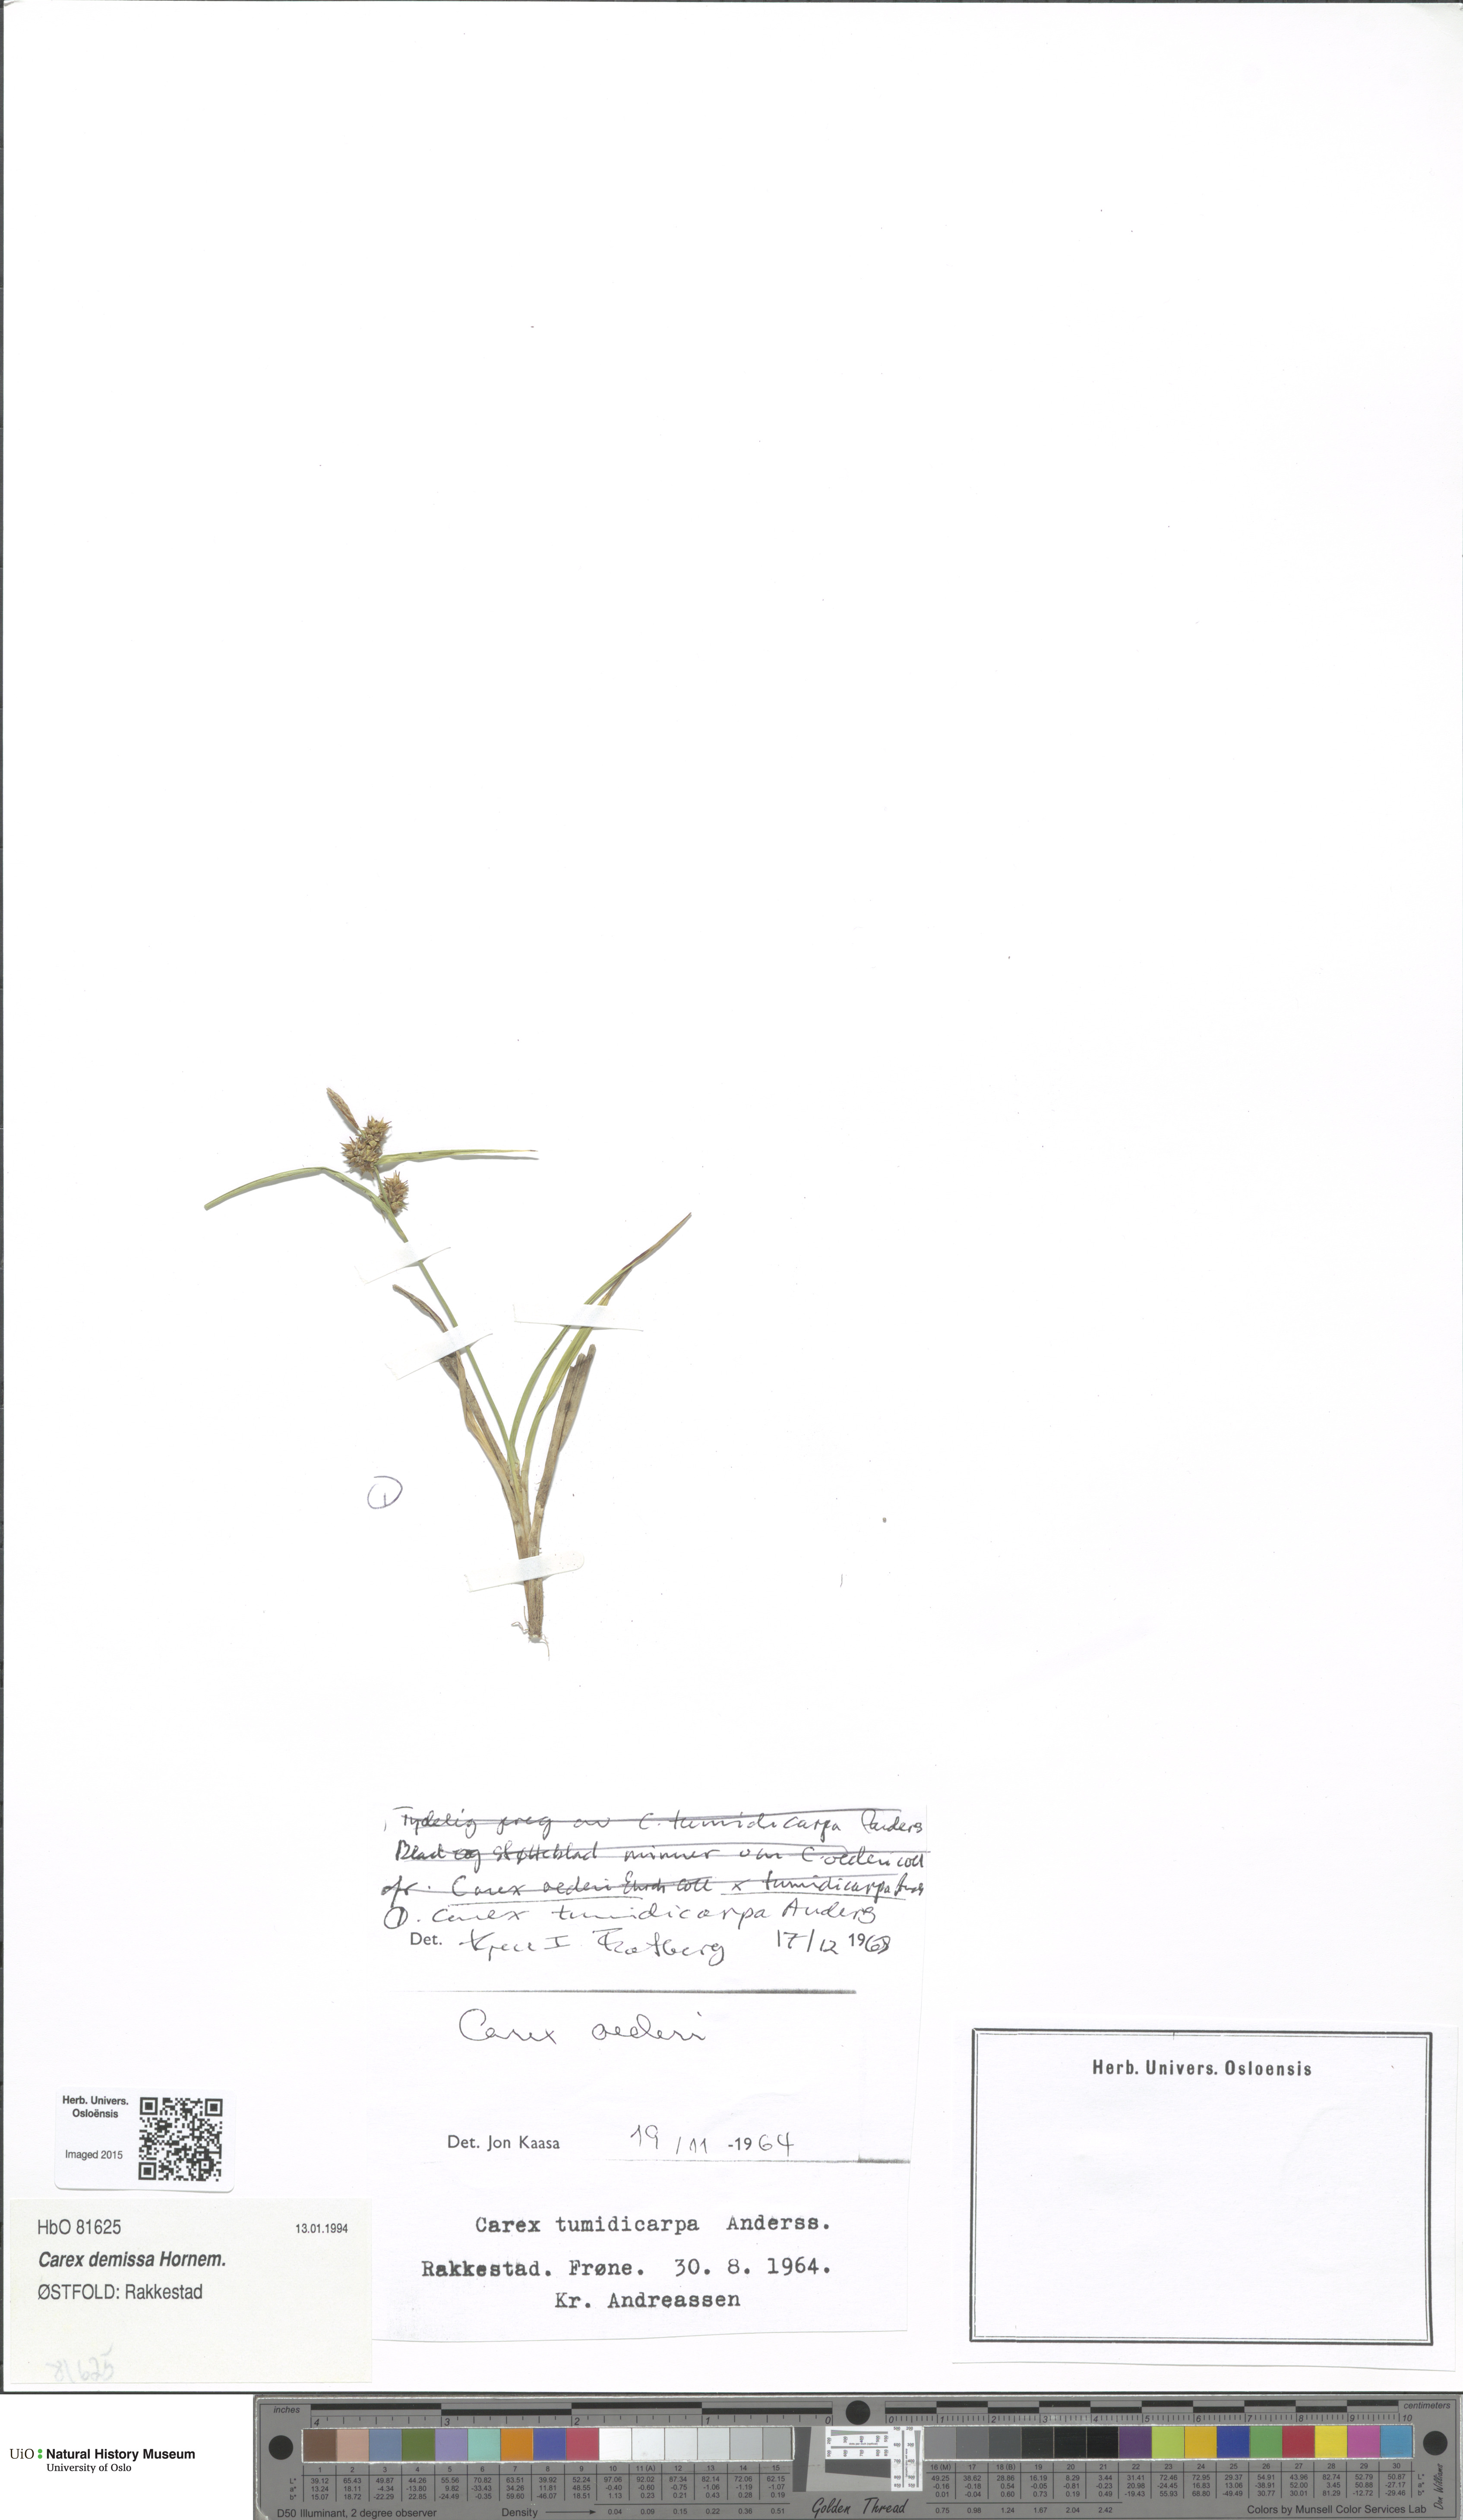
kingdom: Plantae
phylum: Tracheophyta
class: Liliopsida
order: Poales
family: Cyperaceae
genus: Carex
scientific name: Carex demissa
